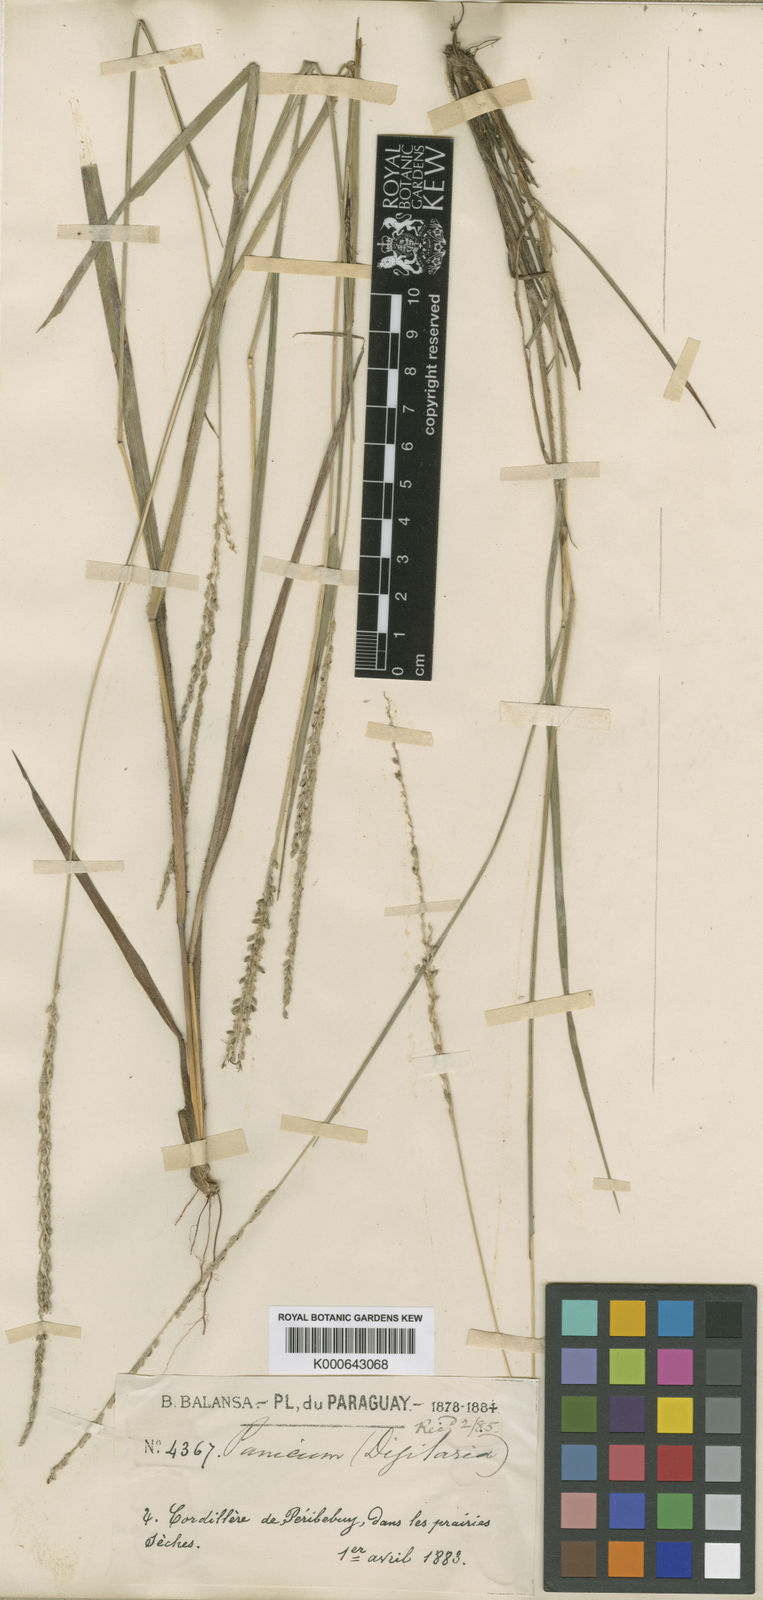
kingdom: Plantae
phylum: Tracheophyta
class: Liliopsida
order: Poales
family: Poaceae
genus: Digitaria
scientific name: Digitaria corynotricha
